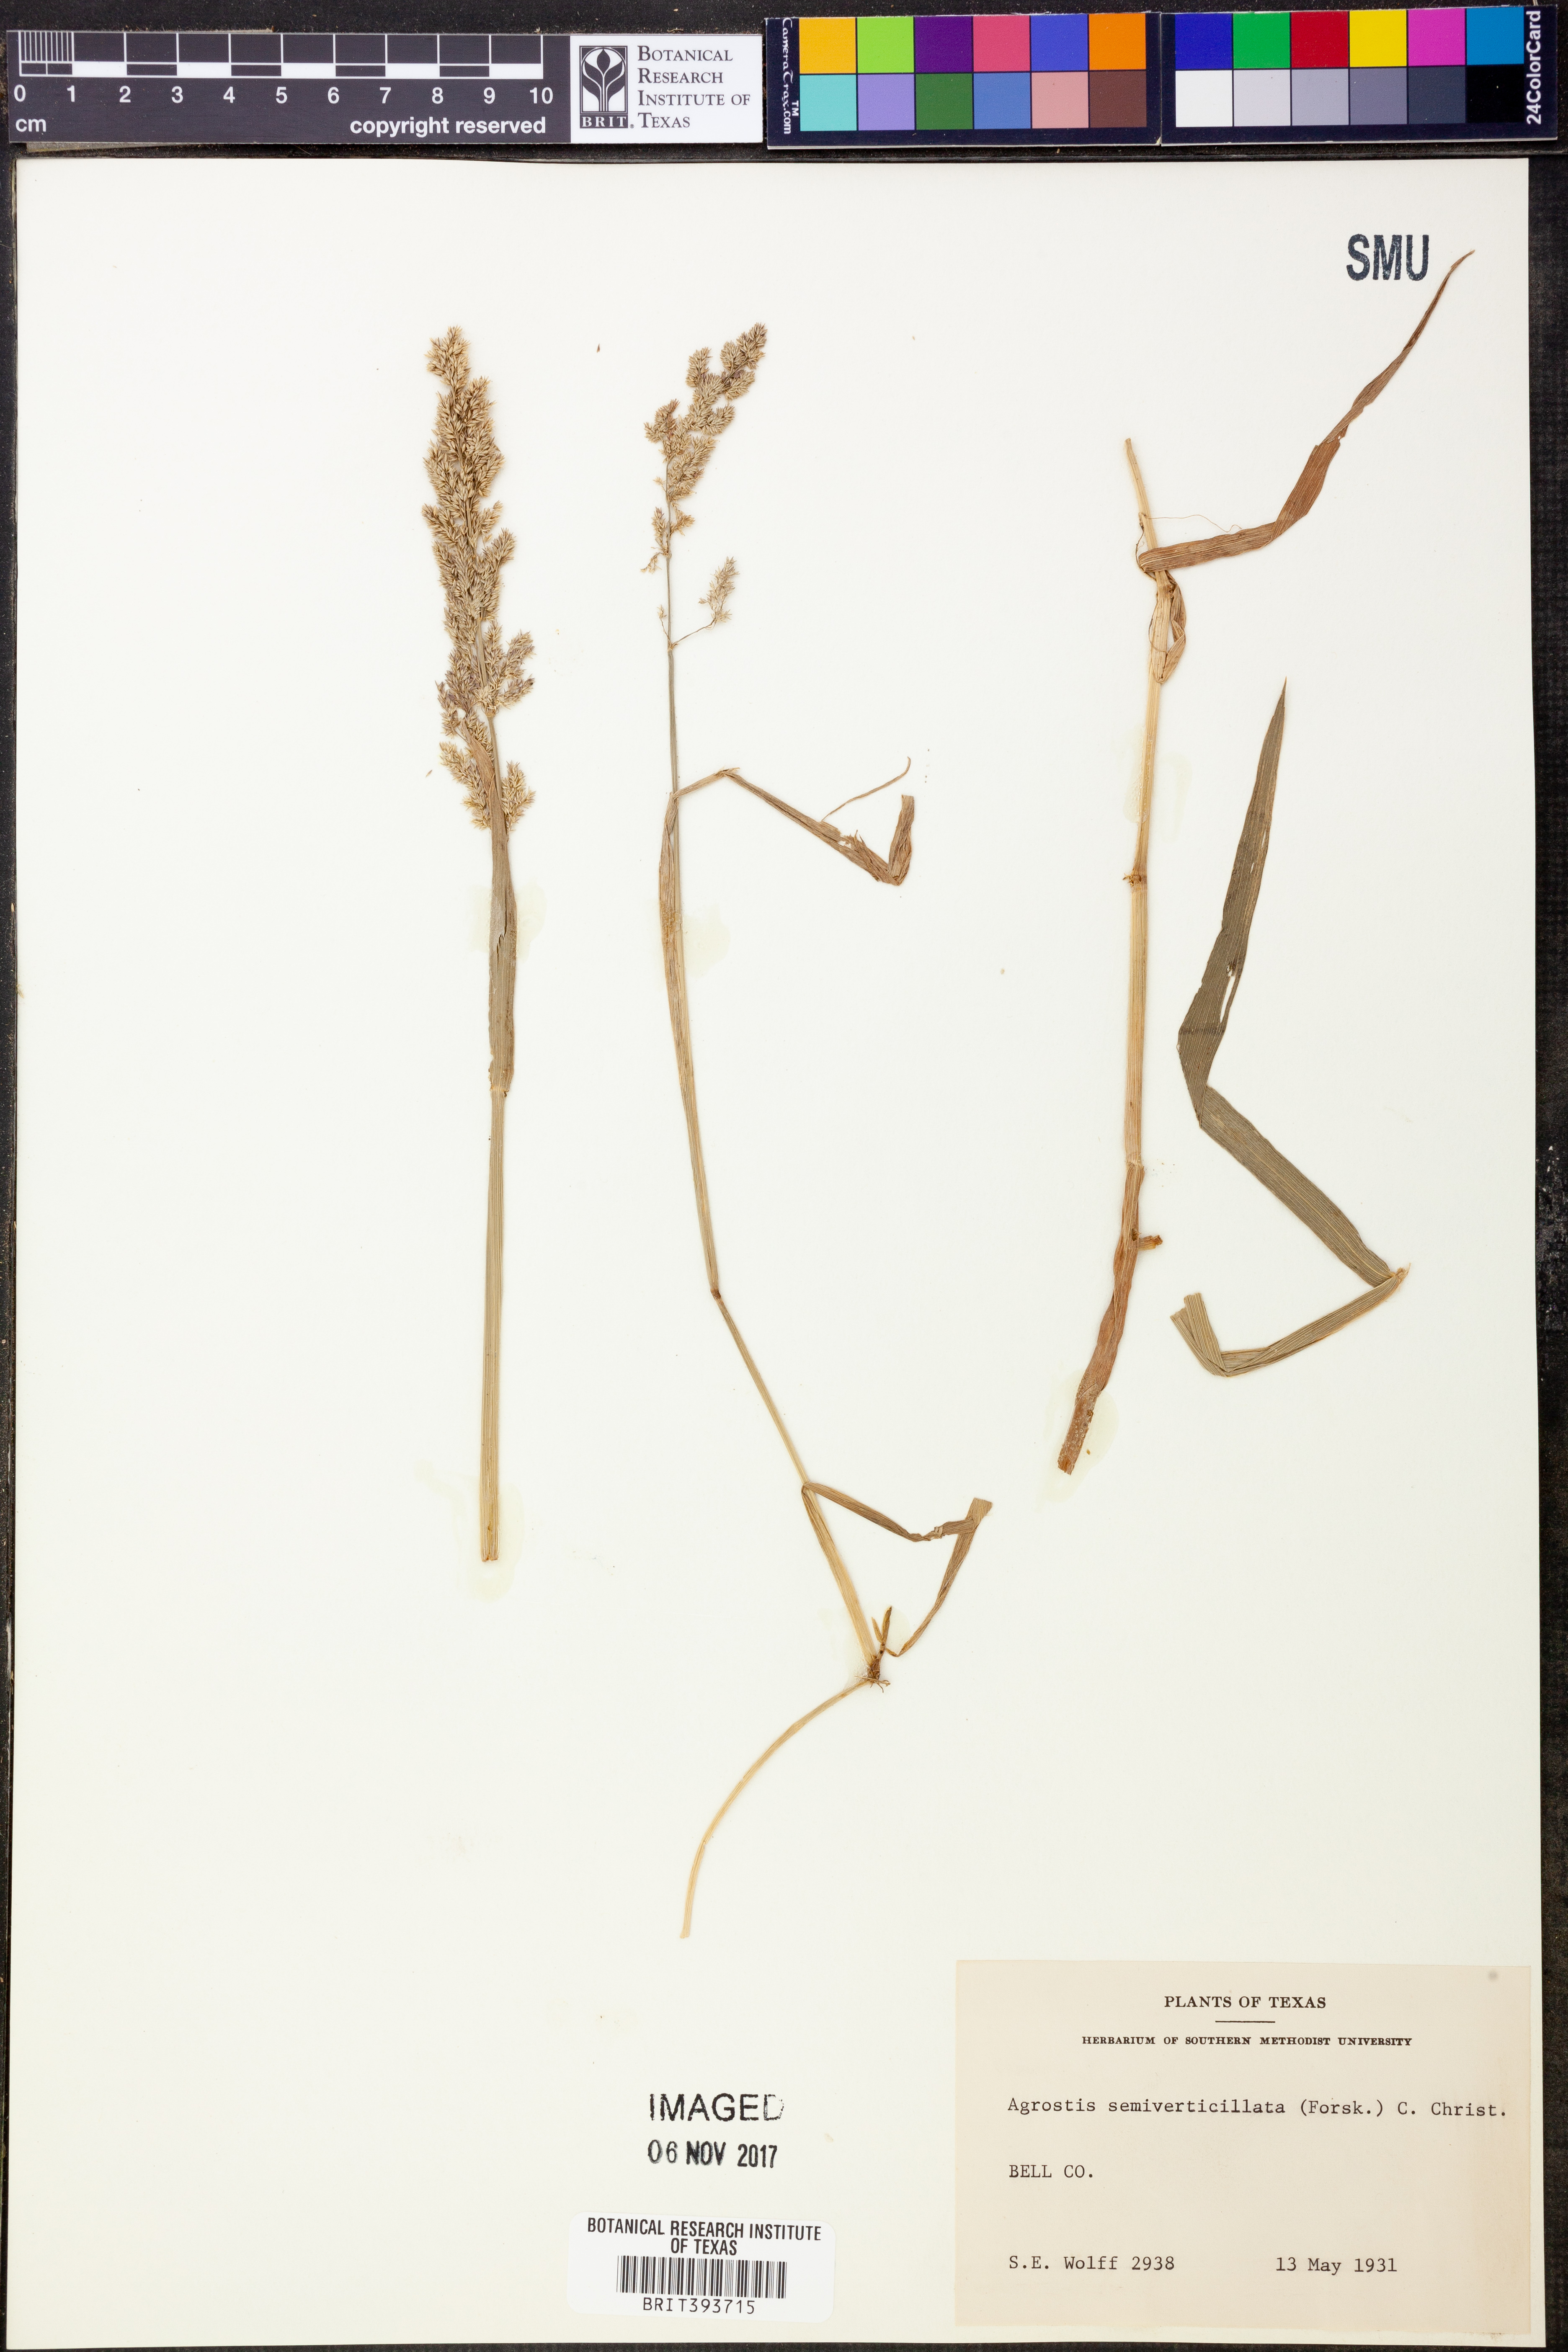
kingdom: Plantae
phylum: Tracheophyta
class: Liliopsida
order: Poales
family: Poaceae
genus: Polypogon
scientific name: Polypogon viridis
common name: Water bent
